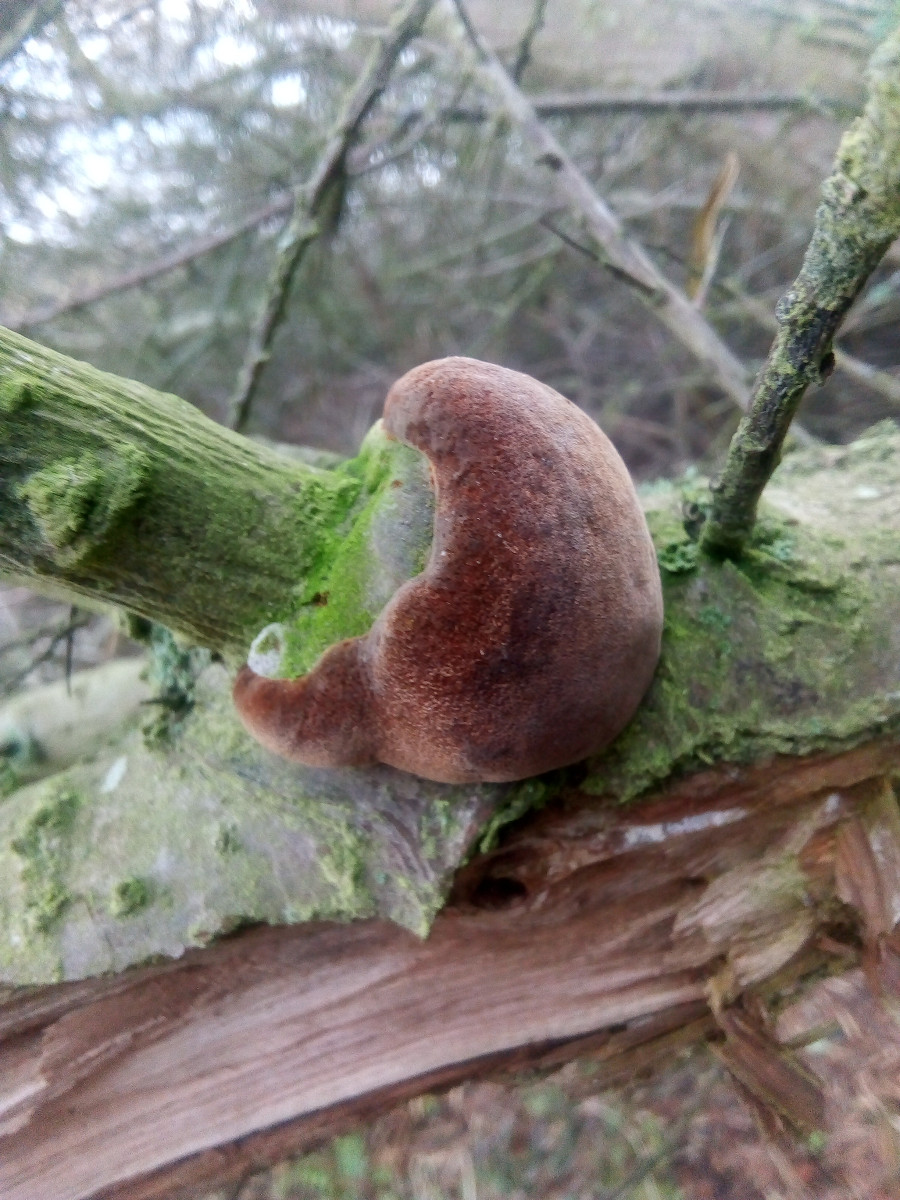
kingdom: Fungi
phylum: Basidiomycota
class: Agaricomycetes
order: Hymenochaetales
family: Hymenochaetaceae
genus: Fomitiporia
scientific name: Fomitiporia hippophaeicola
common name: havtorn-ildporesvamp
